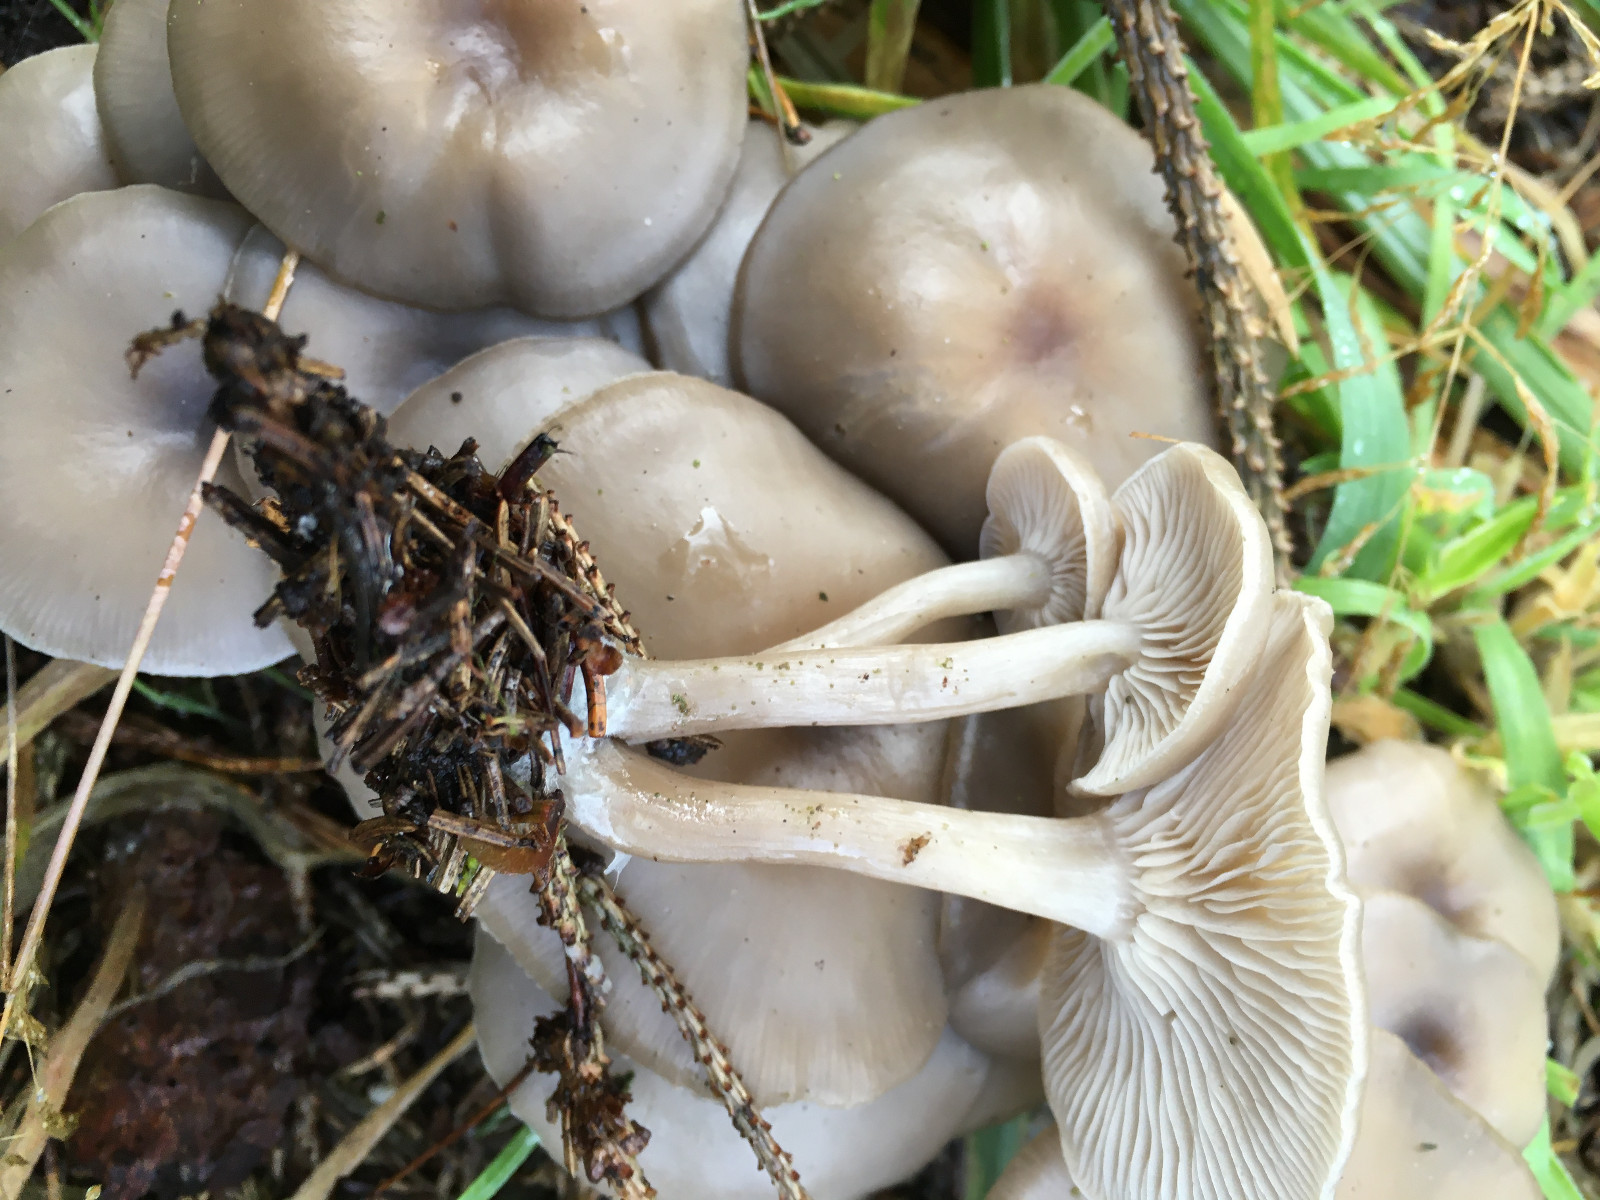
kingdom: Fungi
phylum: Basidiomycota
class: Agaricomycetes
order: Agaricales
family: Tricholomataceae
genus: Clitocybe
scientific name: Clitocybe
